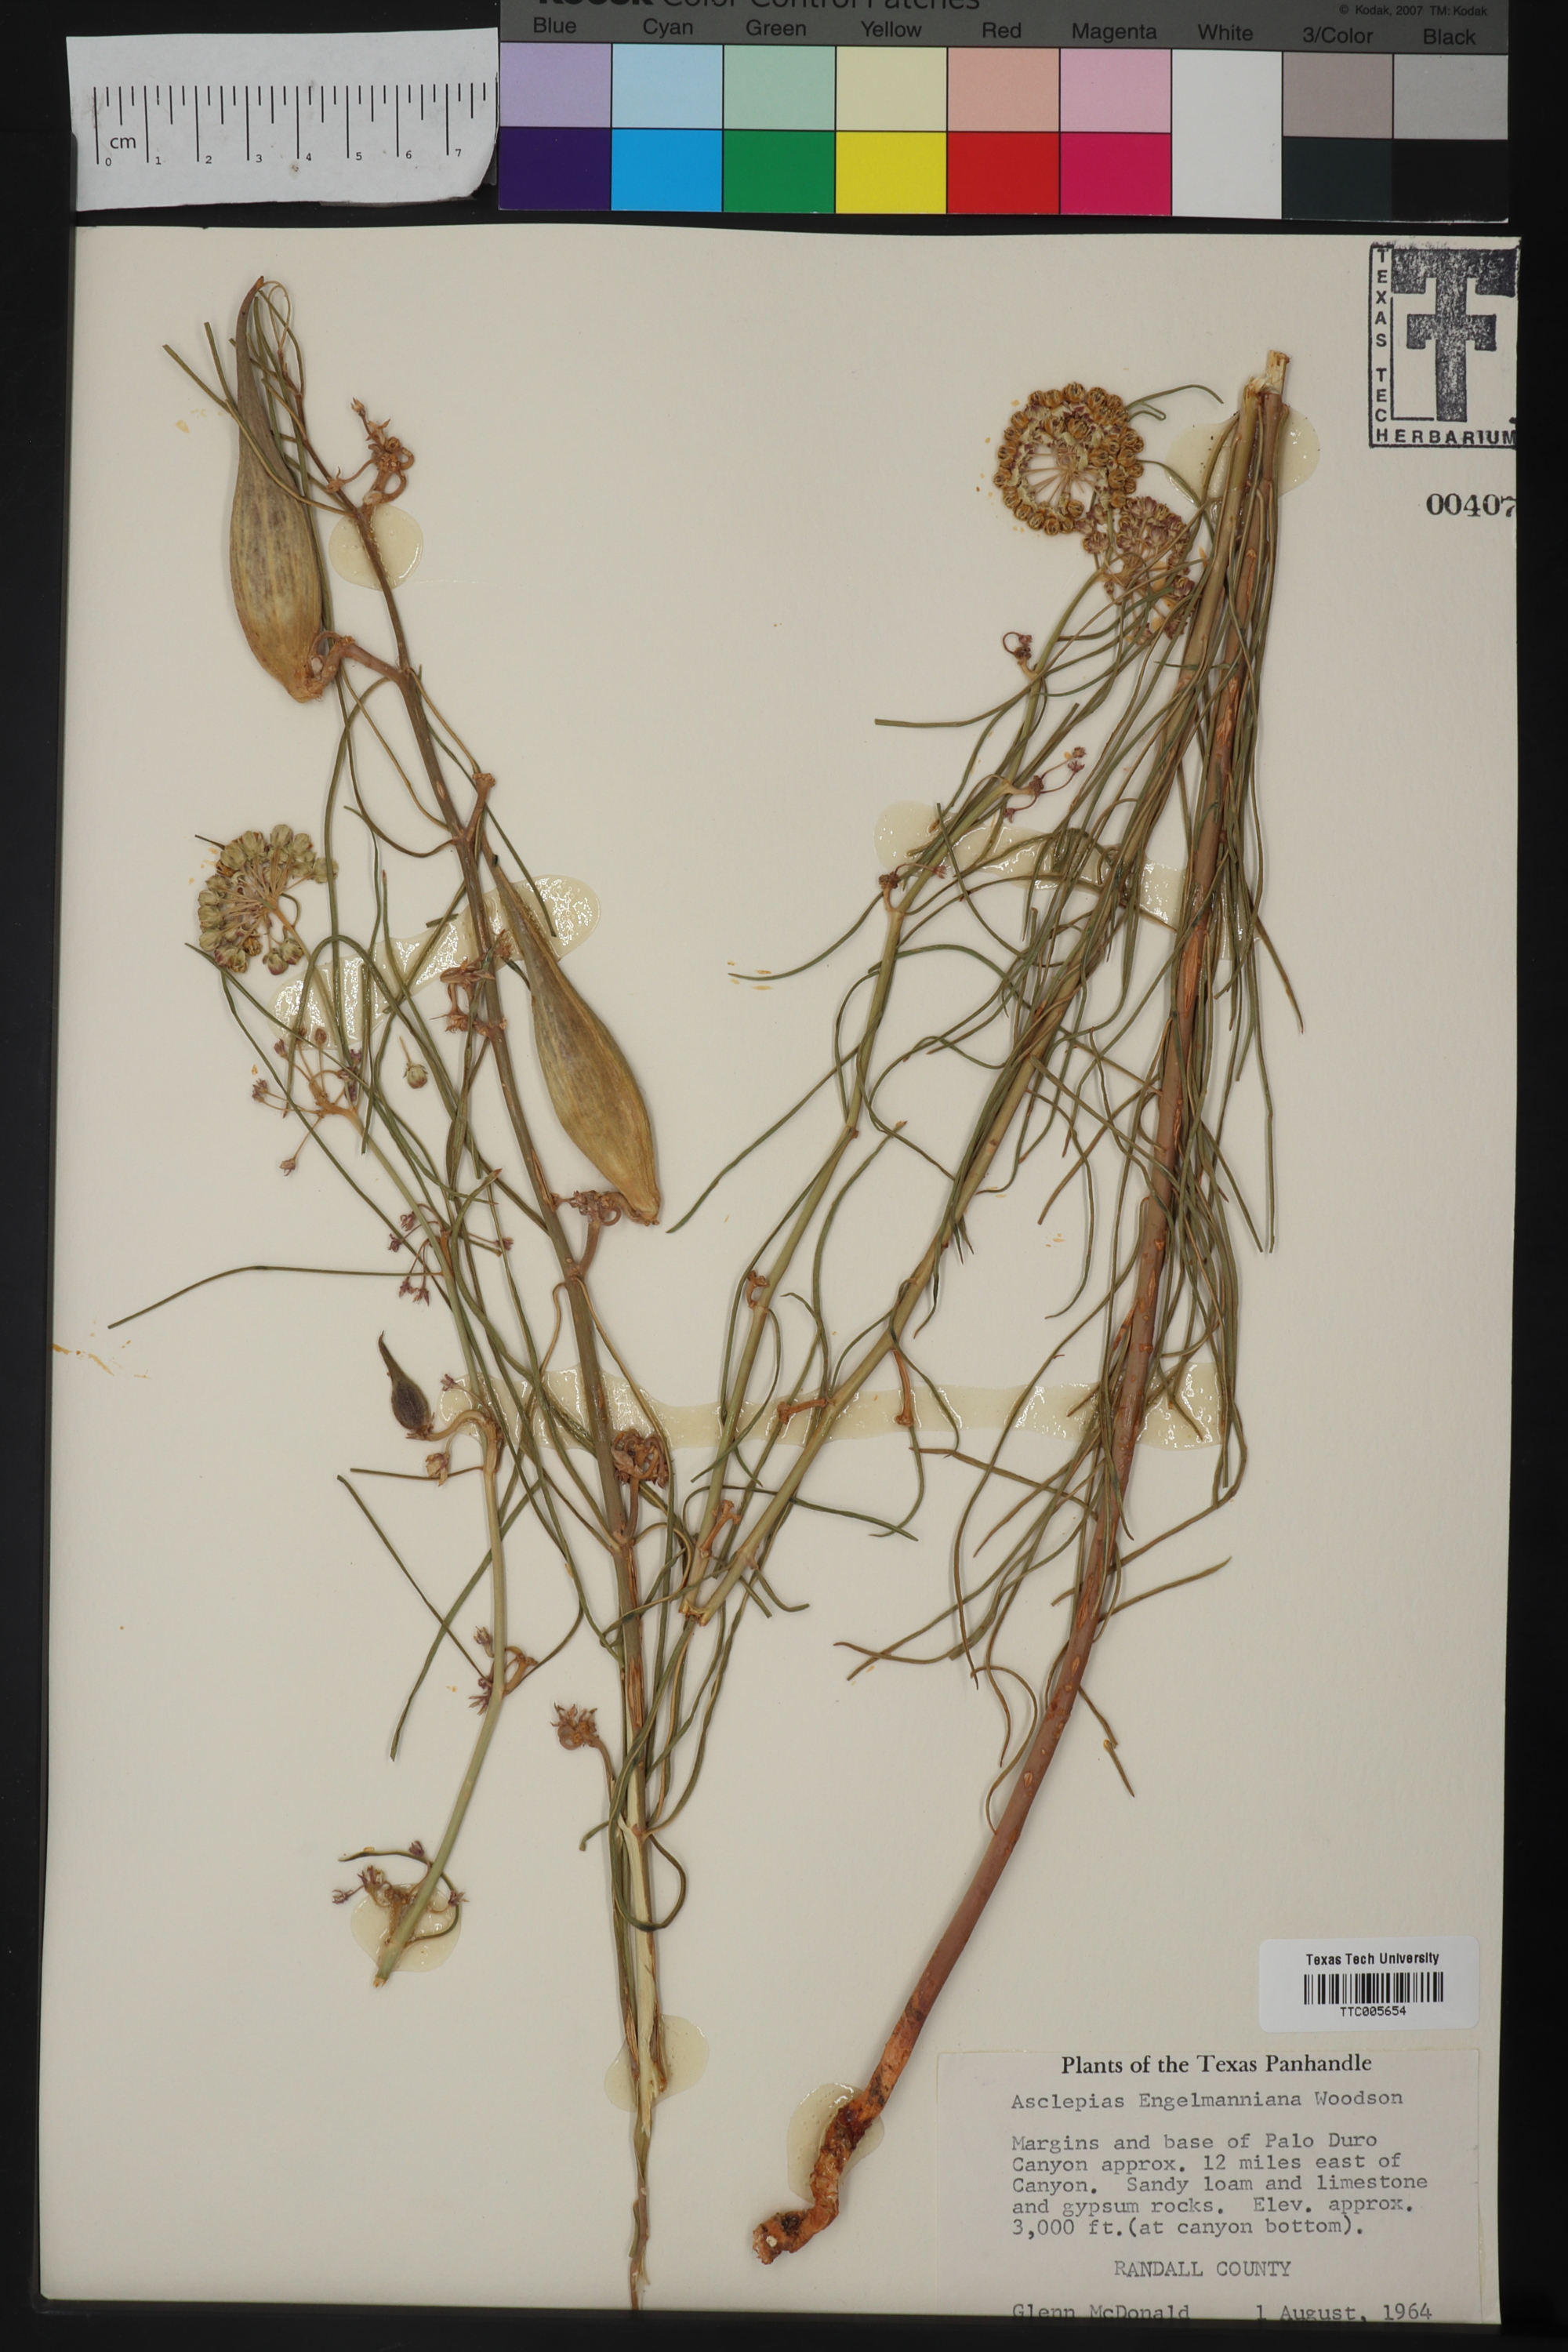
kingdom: Plantae
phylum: Tracheophyta
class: Magnoliopsida
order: Gentianales
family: Apocynaceae
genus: Asclepias
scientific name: Asclepias engelmanniana
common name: Engelmann's milkweed
